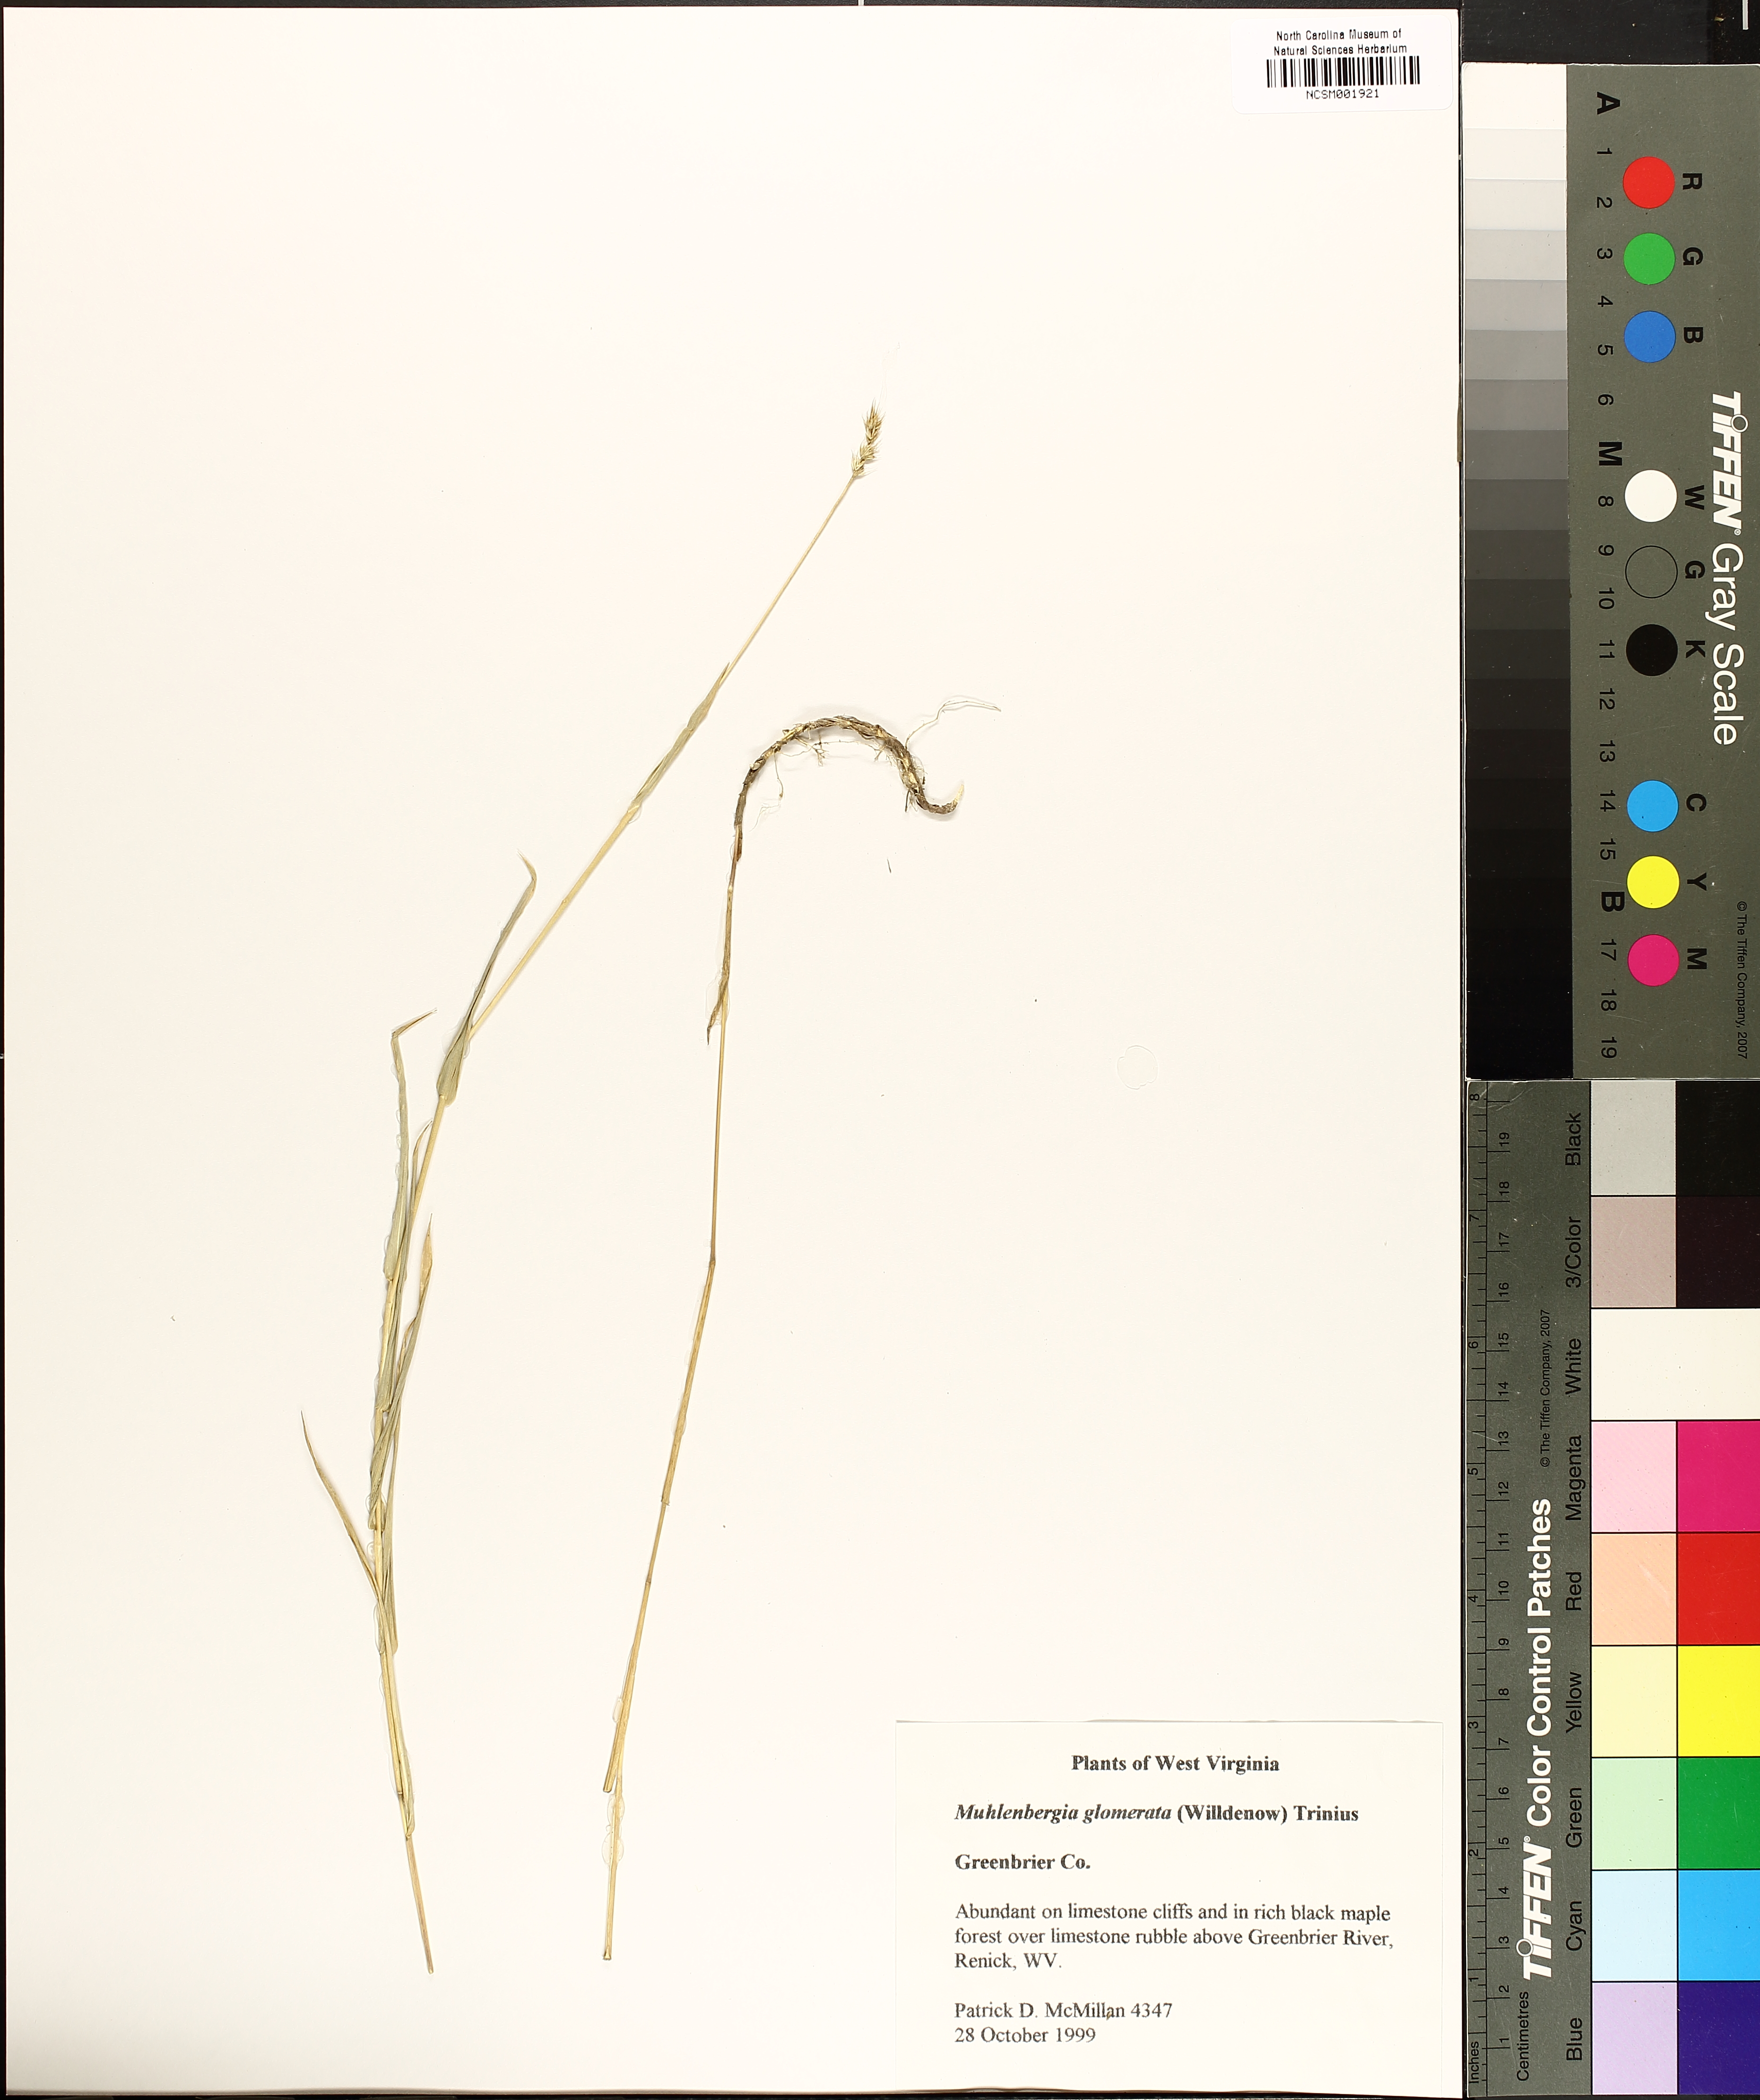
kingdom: Plantae
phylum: Tracheophyta
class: Liliopsida
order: Poales
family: Poaceae
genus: Muhlenbergia
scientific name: Muhlenbergia glomerata
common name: Bog muhly
